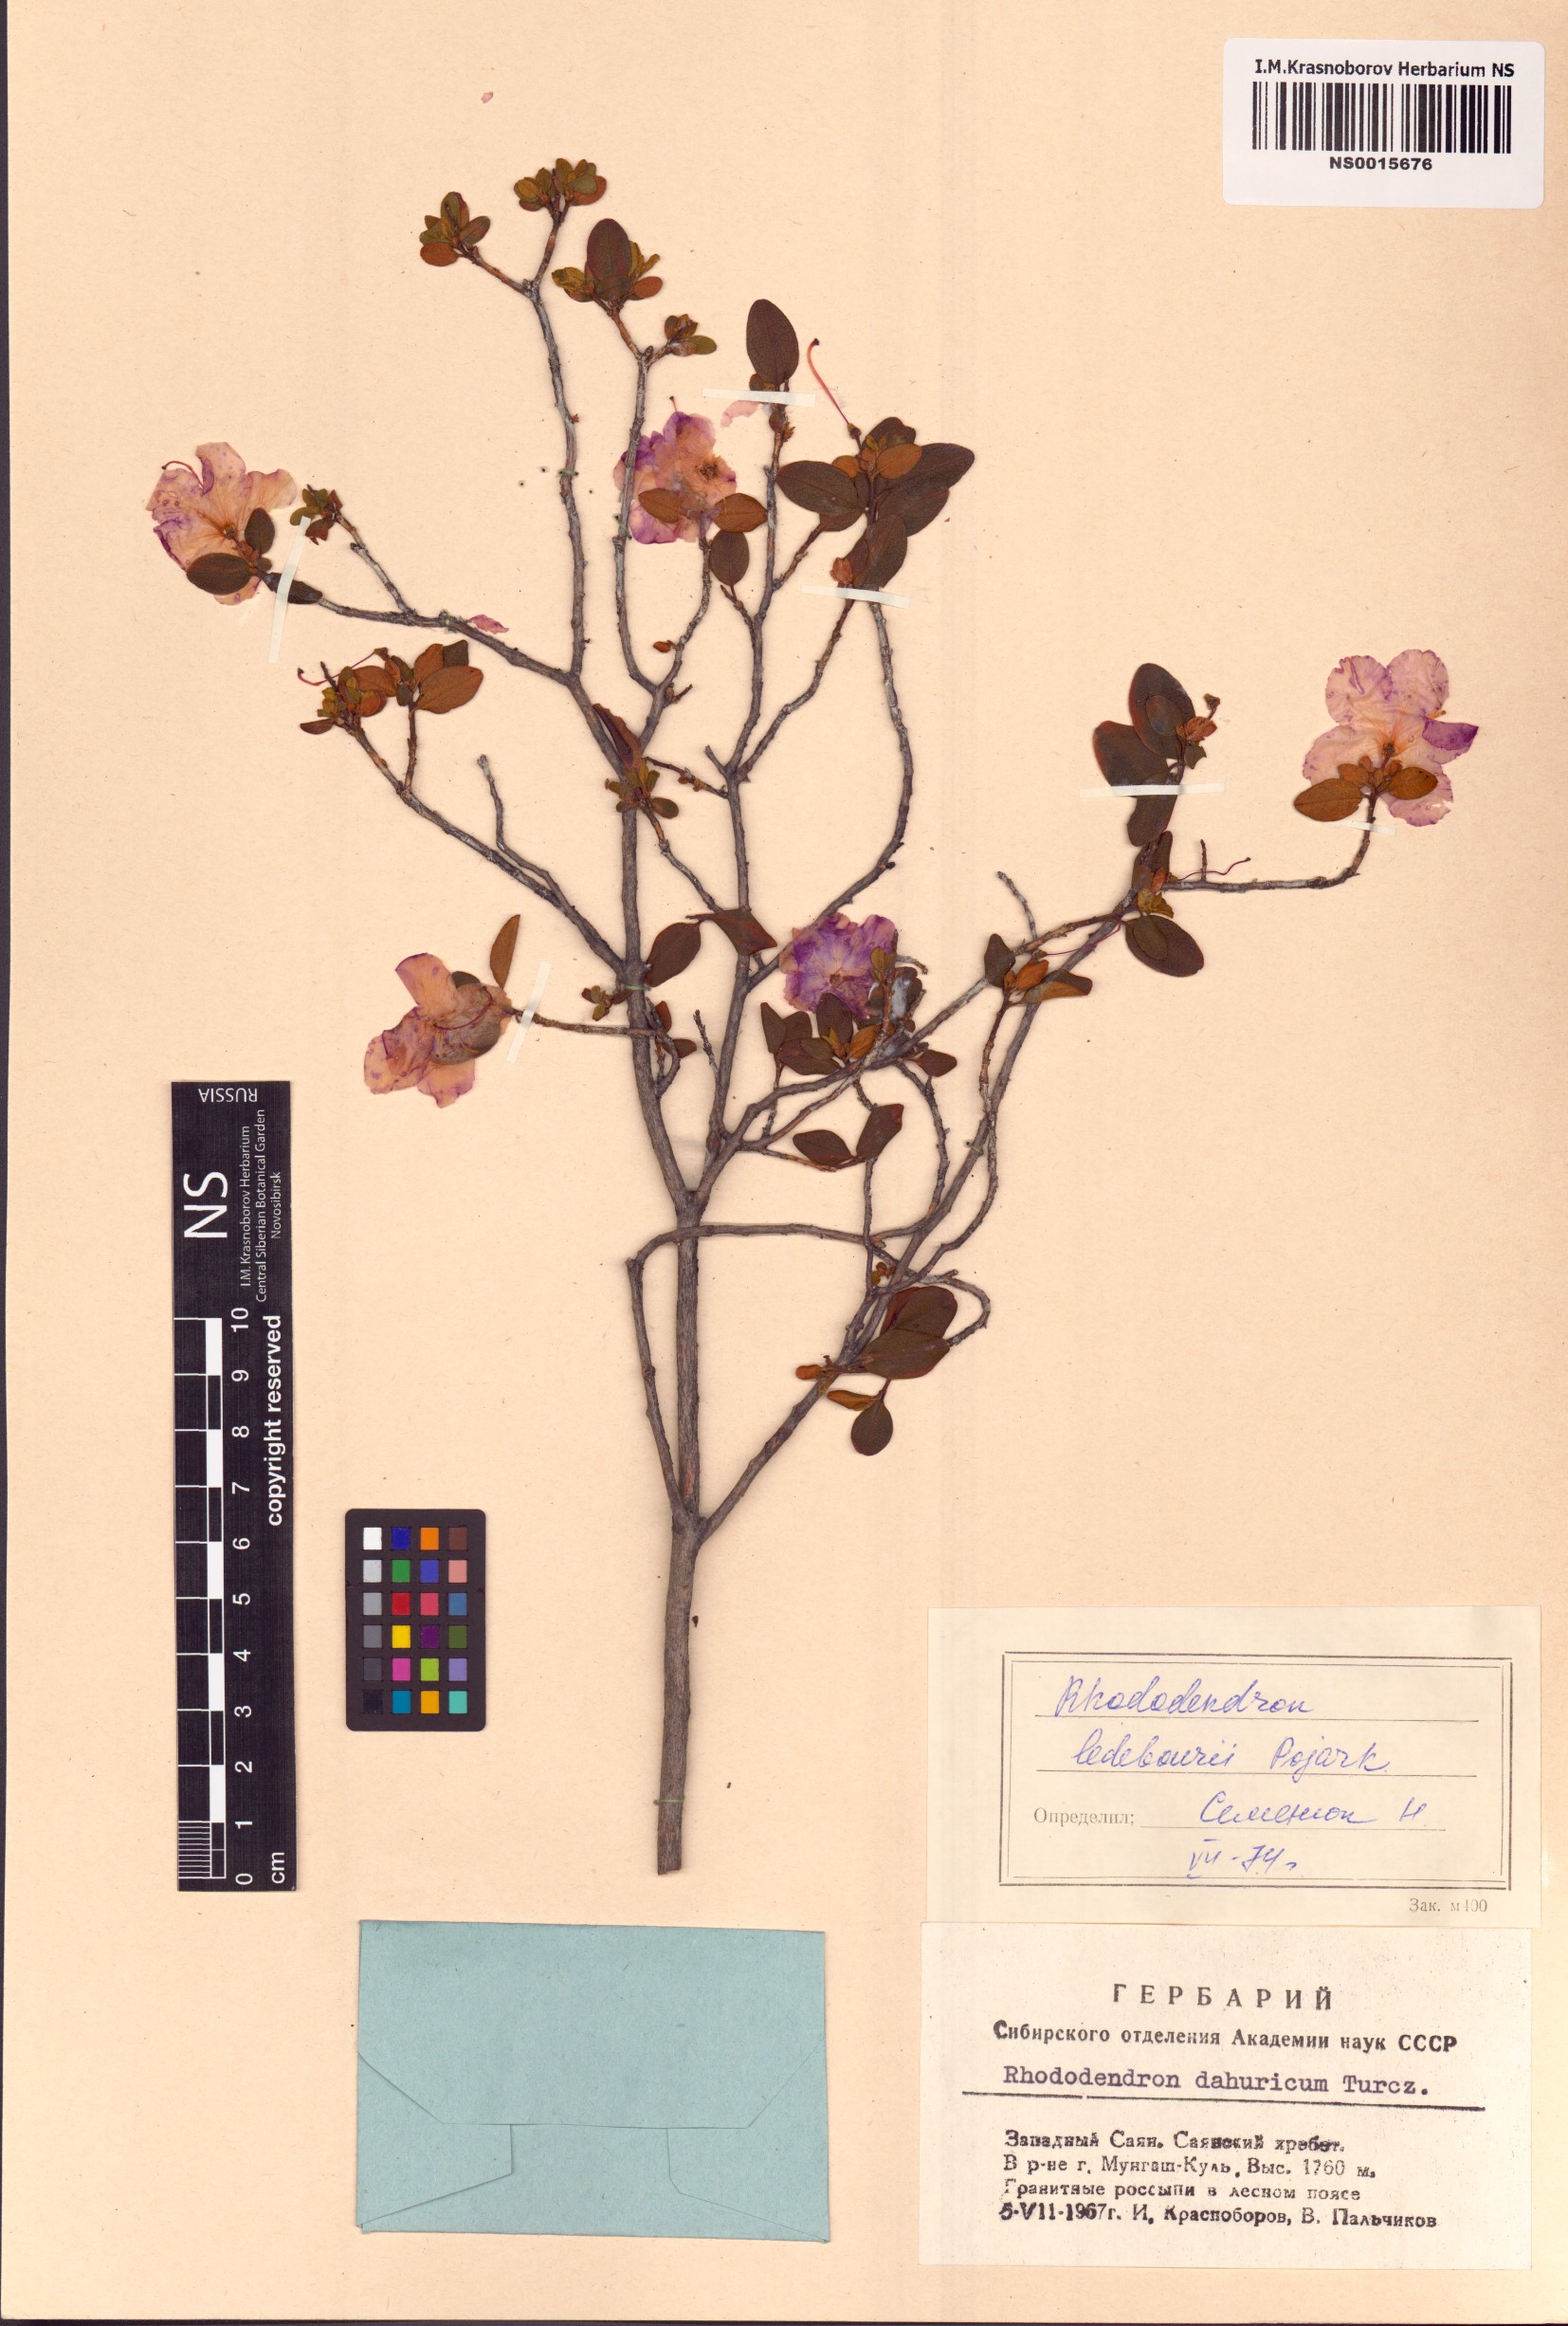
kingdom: Plantae
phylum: Tracheophyta
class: Magnoliopsida
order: Ericales
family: Ericaceae
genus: Rhododendron
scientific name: Rhododendron dauricum
